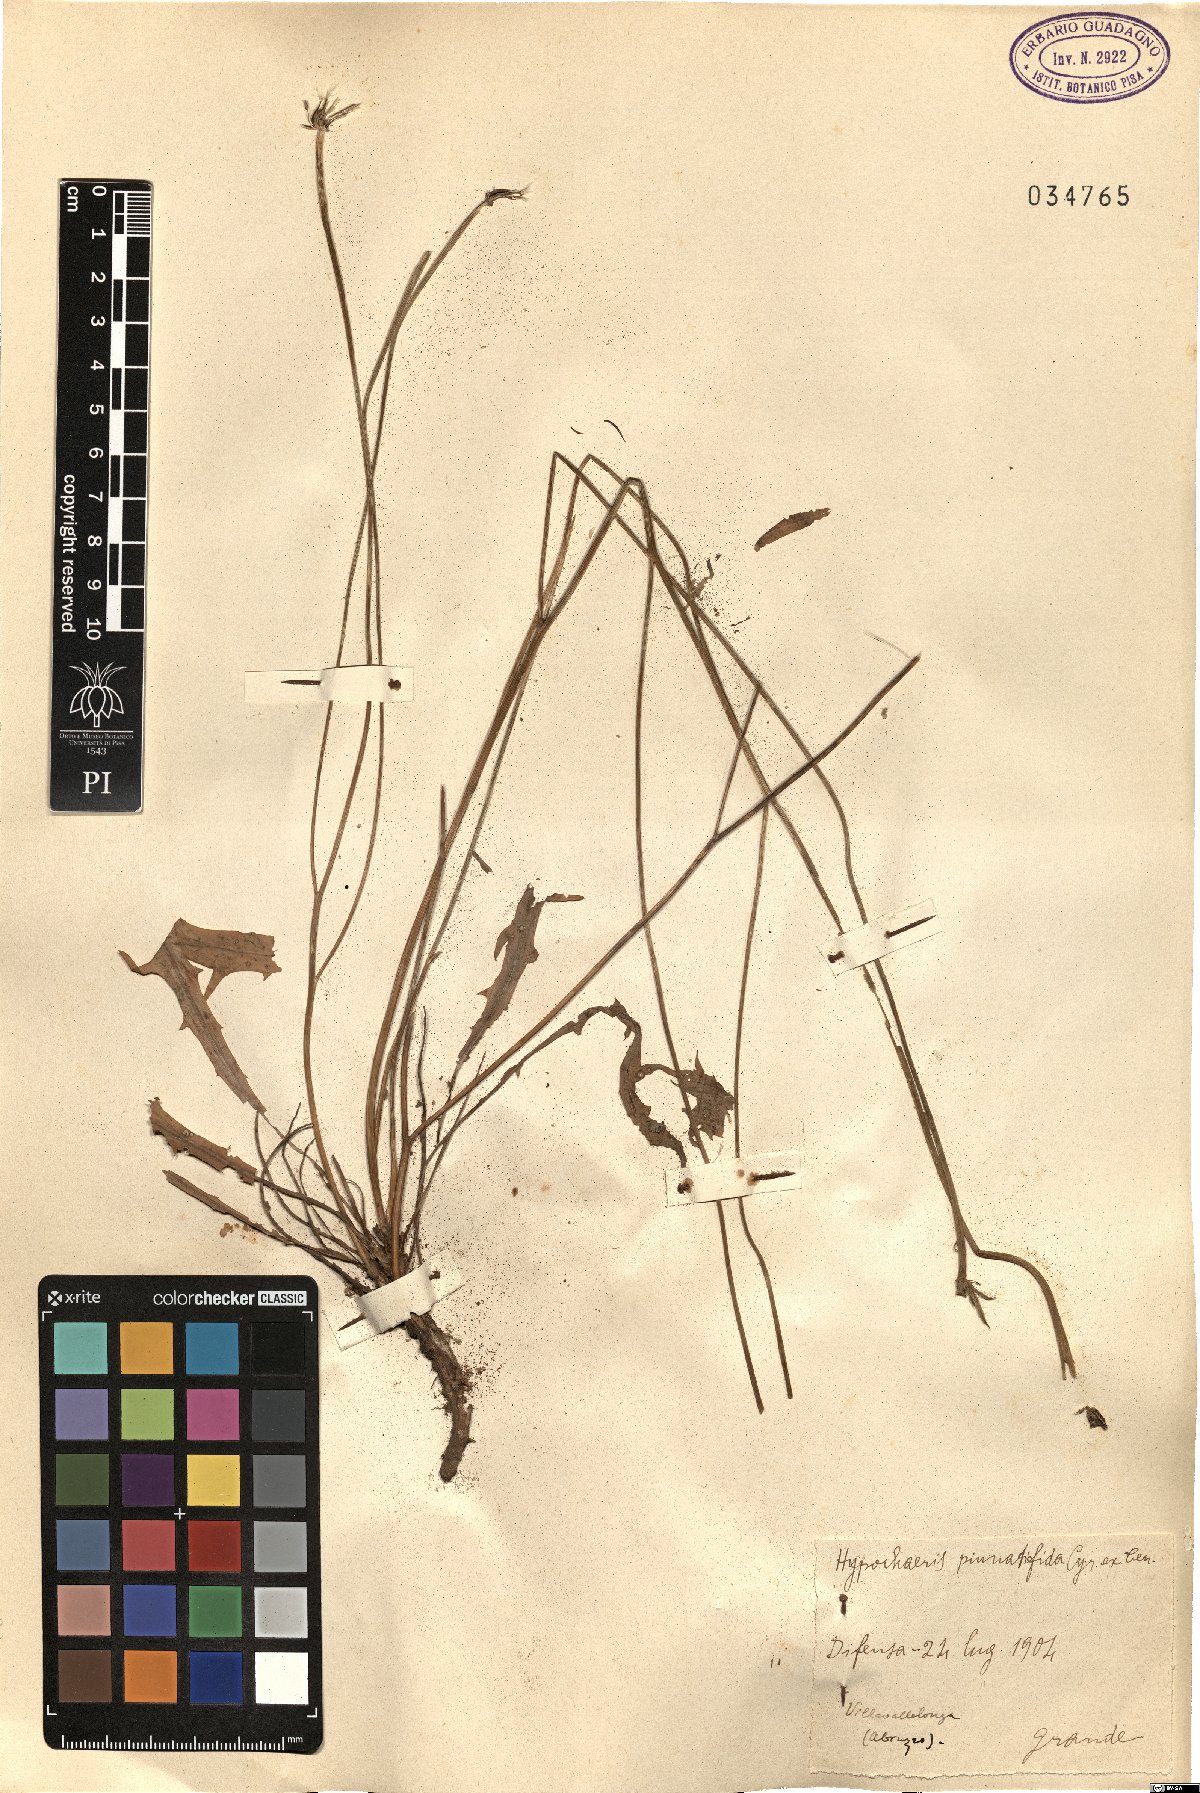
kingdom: Plantae
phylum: Tracheophyta
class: Magnoliopsida
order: Asterales
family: Asteraceae
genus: Hypochaeris
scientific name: Hypochaeris cretensis
